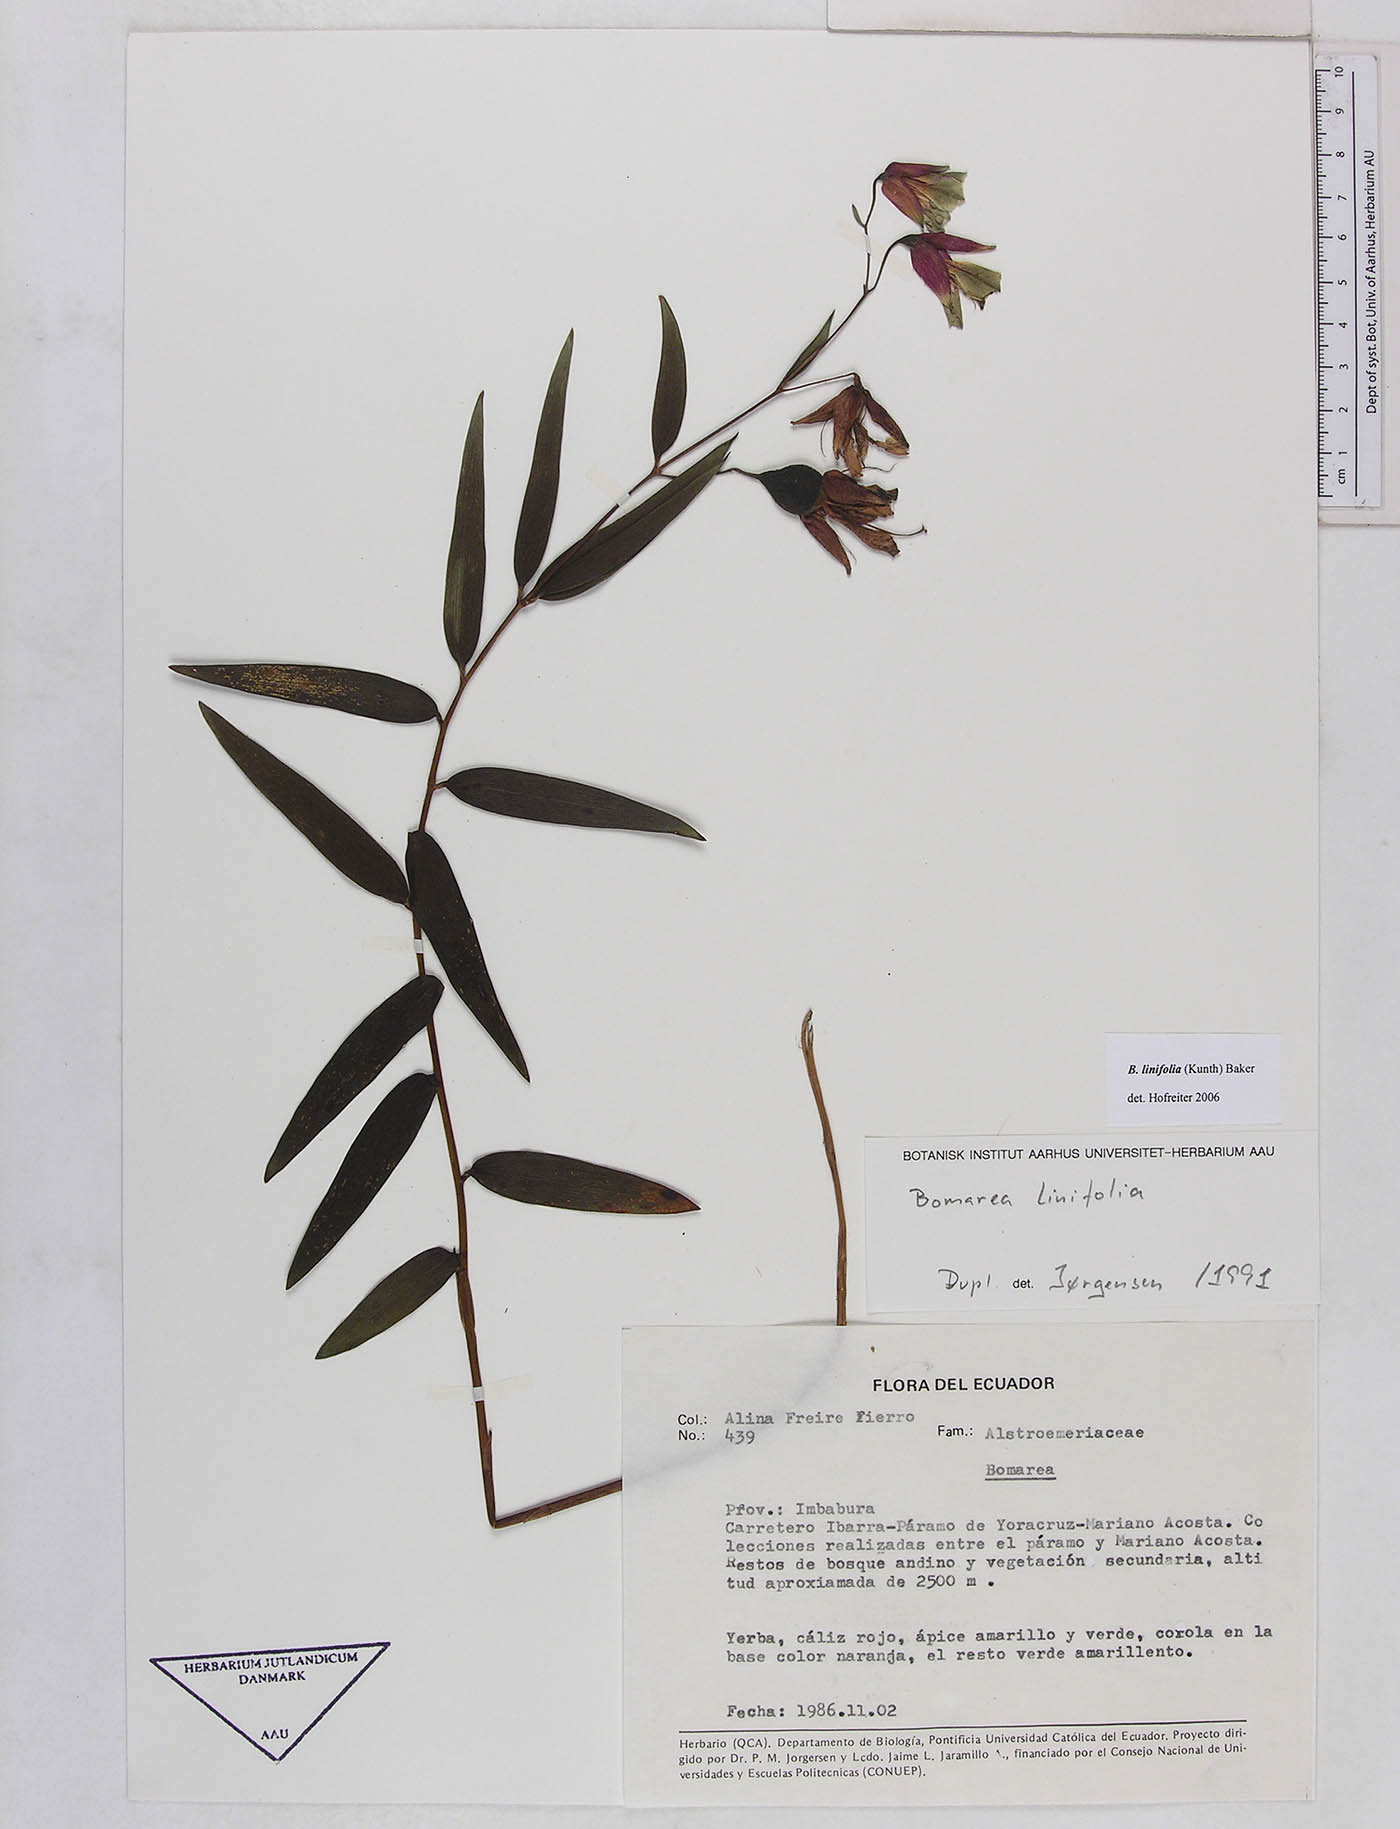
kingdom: Plantae
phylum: Tracheophyta
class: Liliopsida
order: Liliales
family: Alstroemeriaceae
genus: Bomarea
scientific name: Bomarea linifolia
